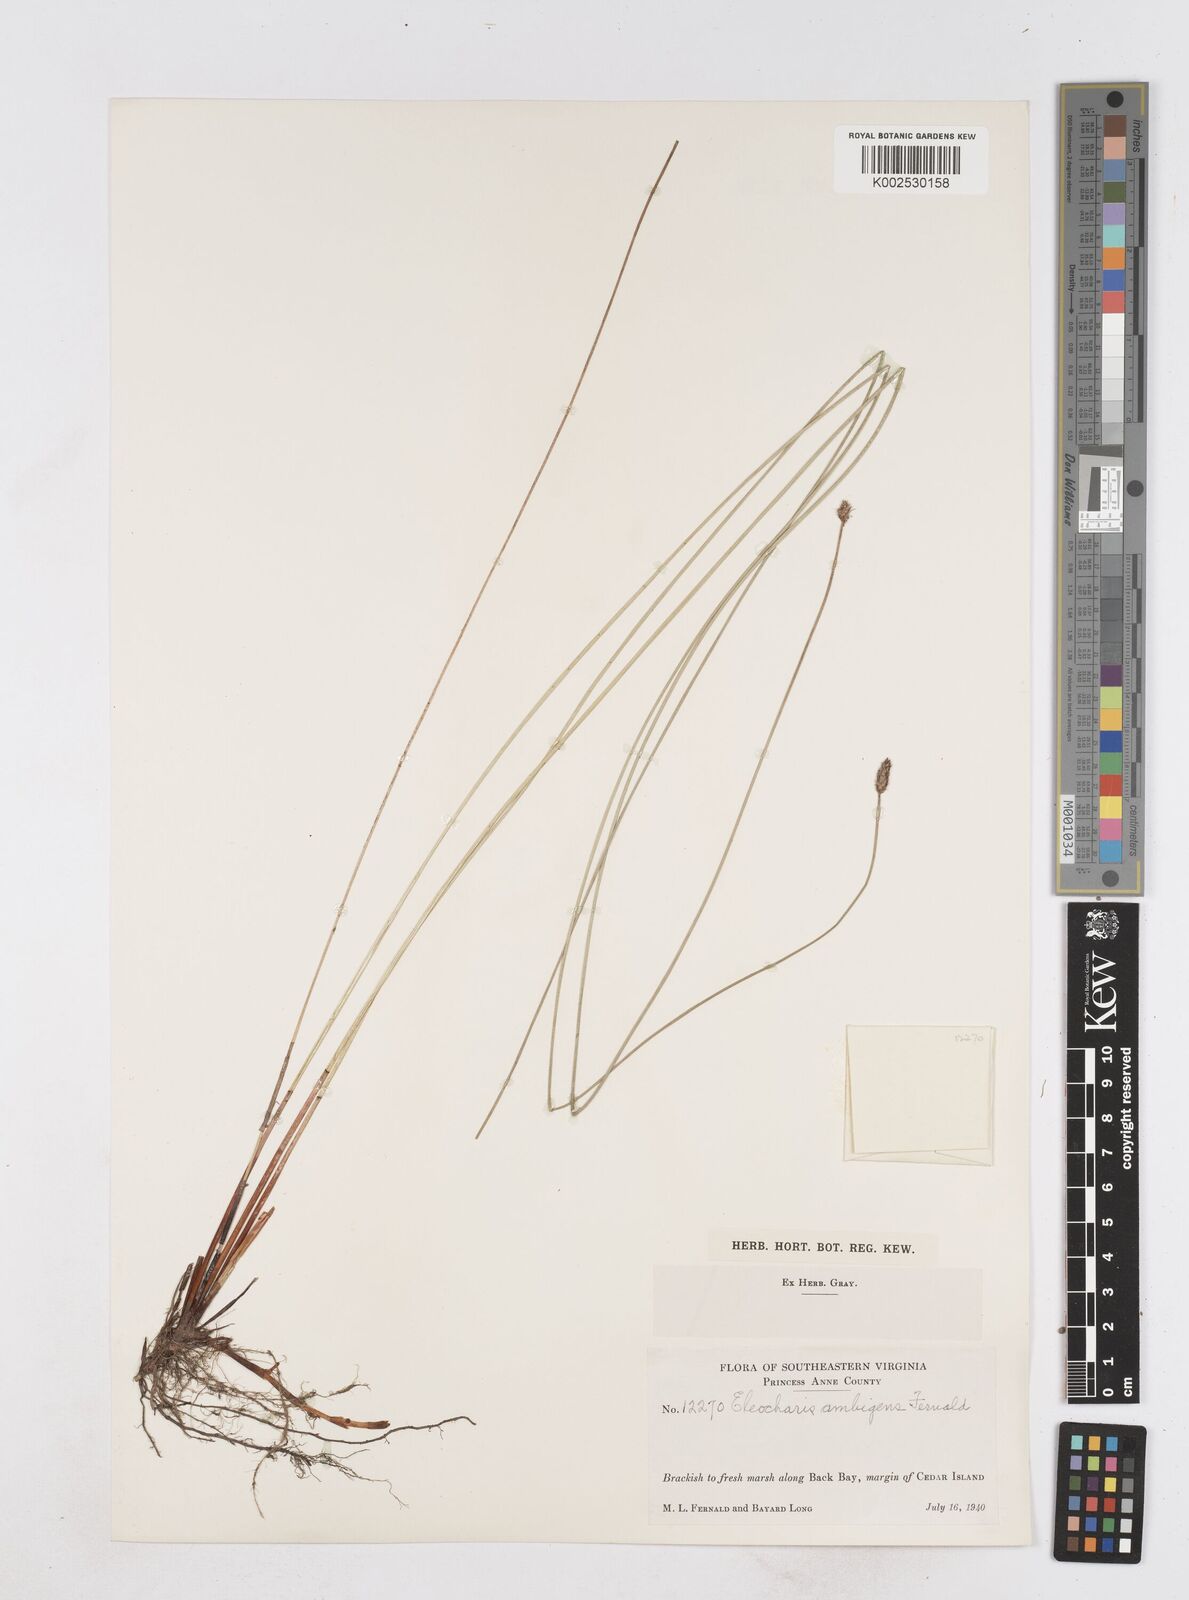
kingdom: Plantae
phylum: Tracheophyta
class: Liliopsida
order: Poales
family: Cyperaceae
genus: Eleocharis
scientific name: Eleocharis fallax
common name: Creeping spikerush
